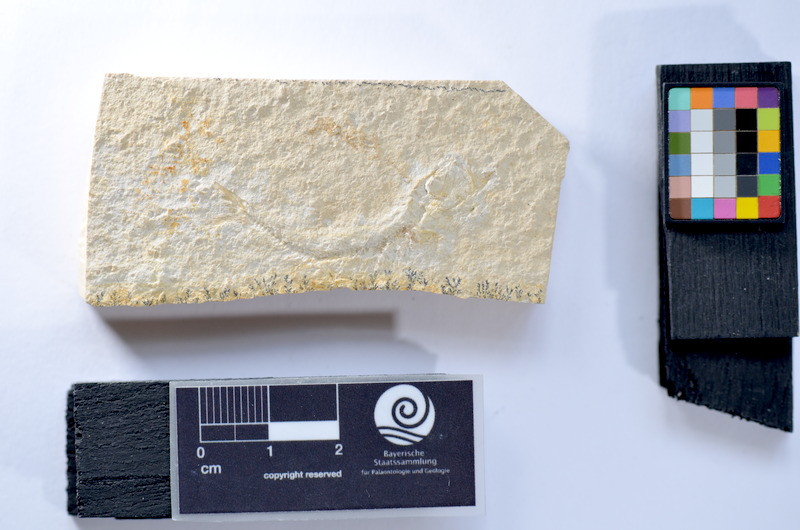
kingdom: Animalia
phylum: Chordata
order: Salmoniformes
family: Orthogonikleithridae
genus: Leptolepides
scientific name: Leptolepides
